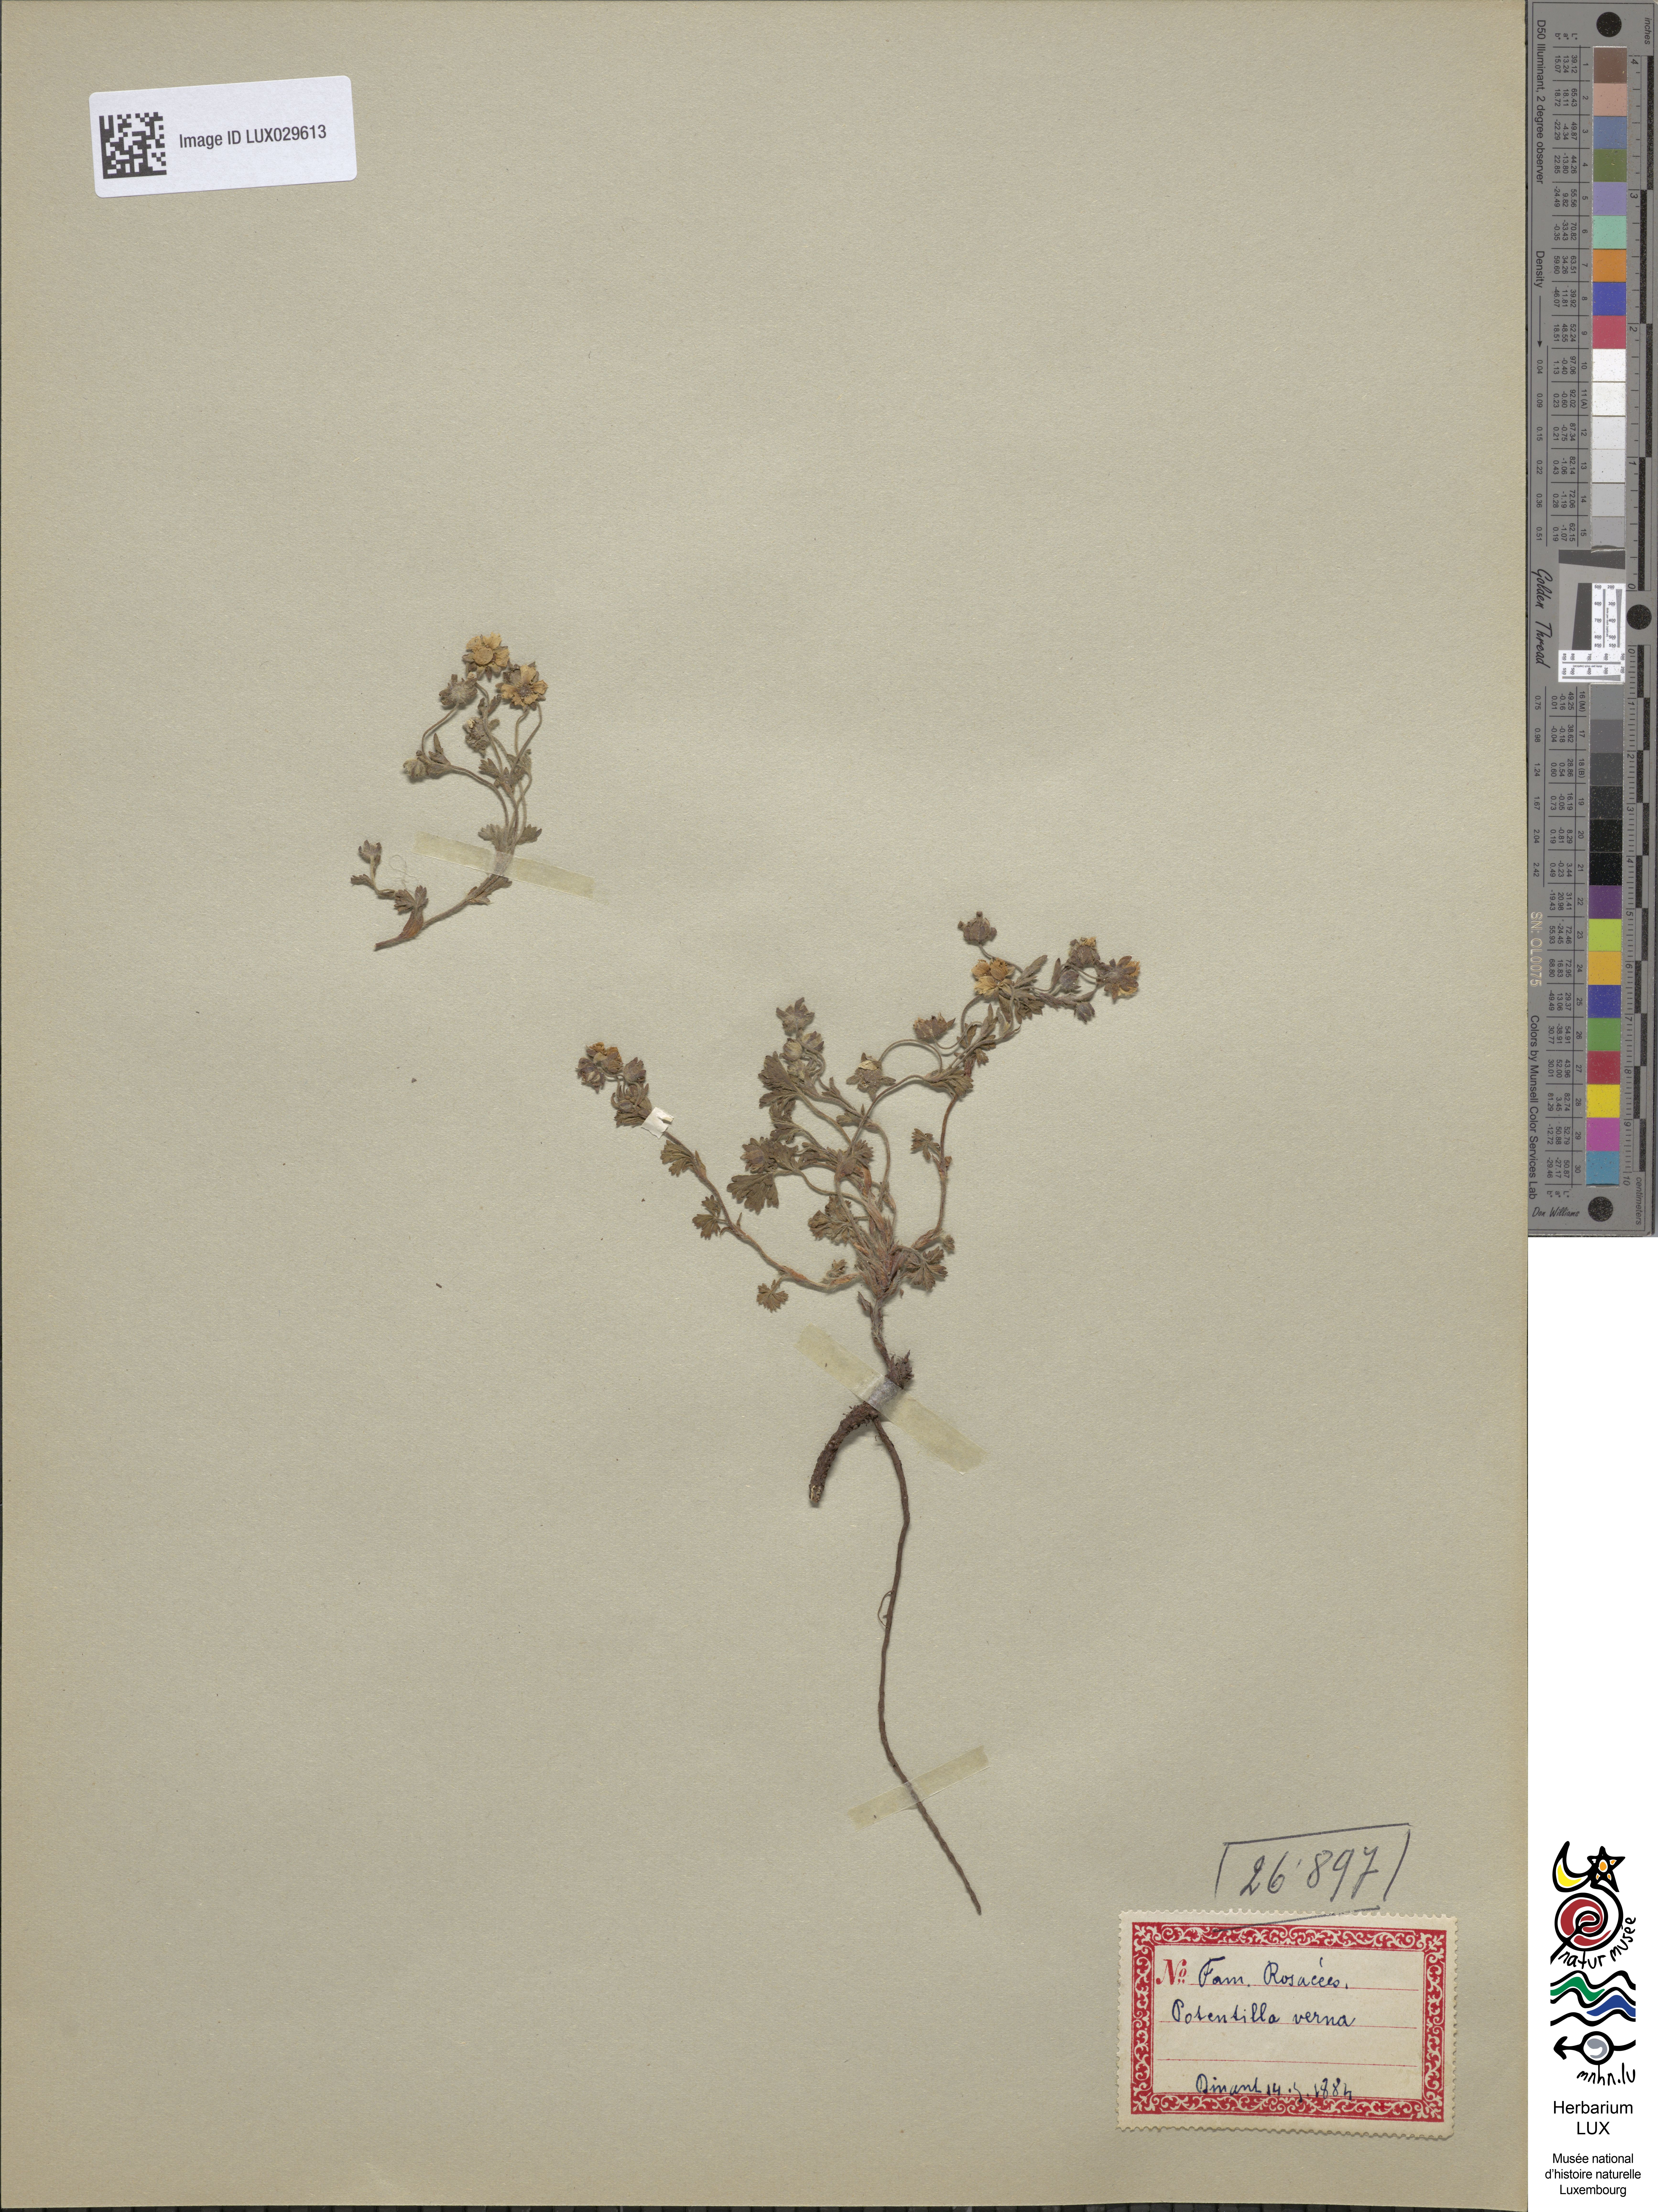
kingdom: Plantae
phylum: Tracheophyta
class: Magnoliopsida
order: Rosales
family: Rosaceae
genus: Potentilla
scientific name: Potentilla verna
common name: Spring cinquefoil
